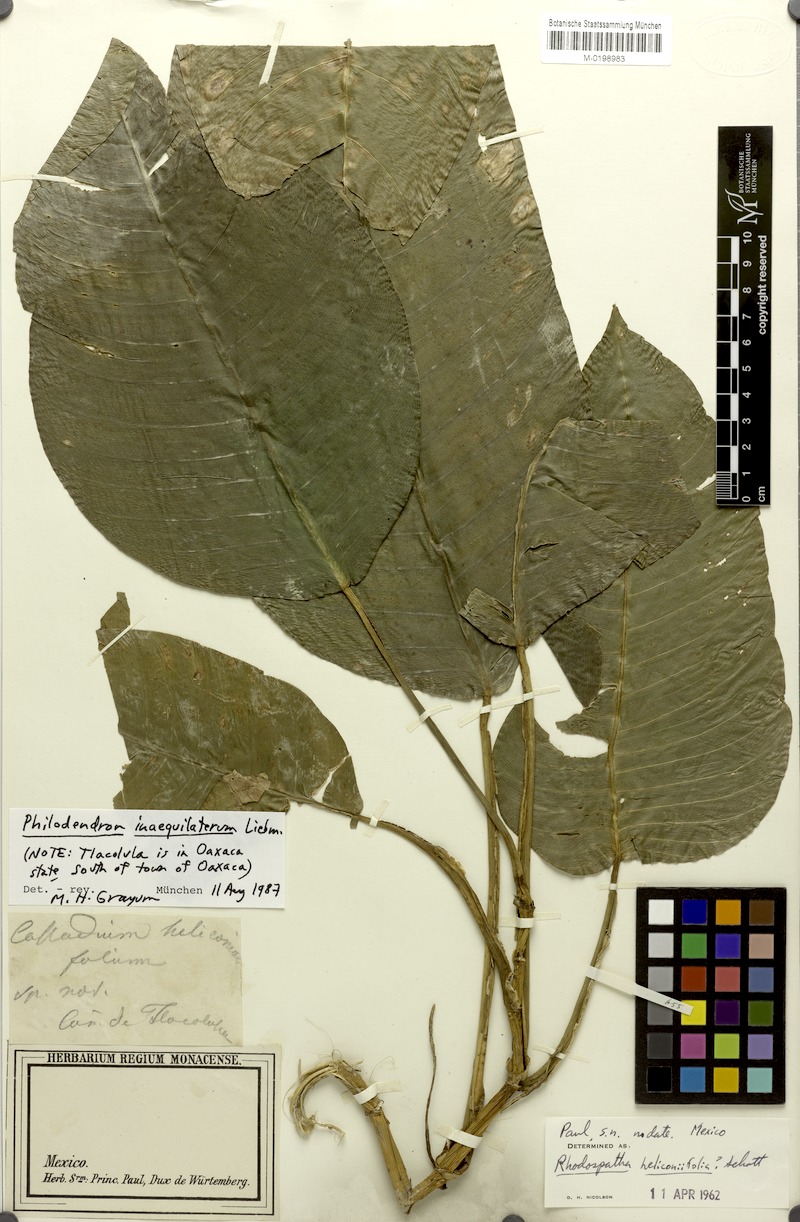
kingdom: Plantae
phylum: Tracheophyta
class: Liliopsida
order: Alismatales
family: Araceae
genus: Philodendron
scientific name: Philodendron inaequilaterum
